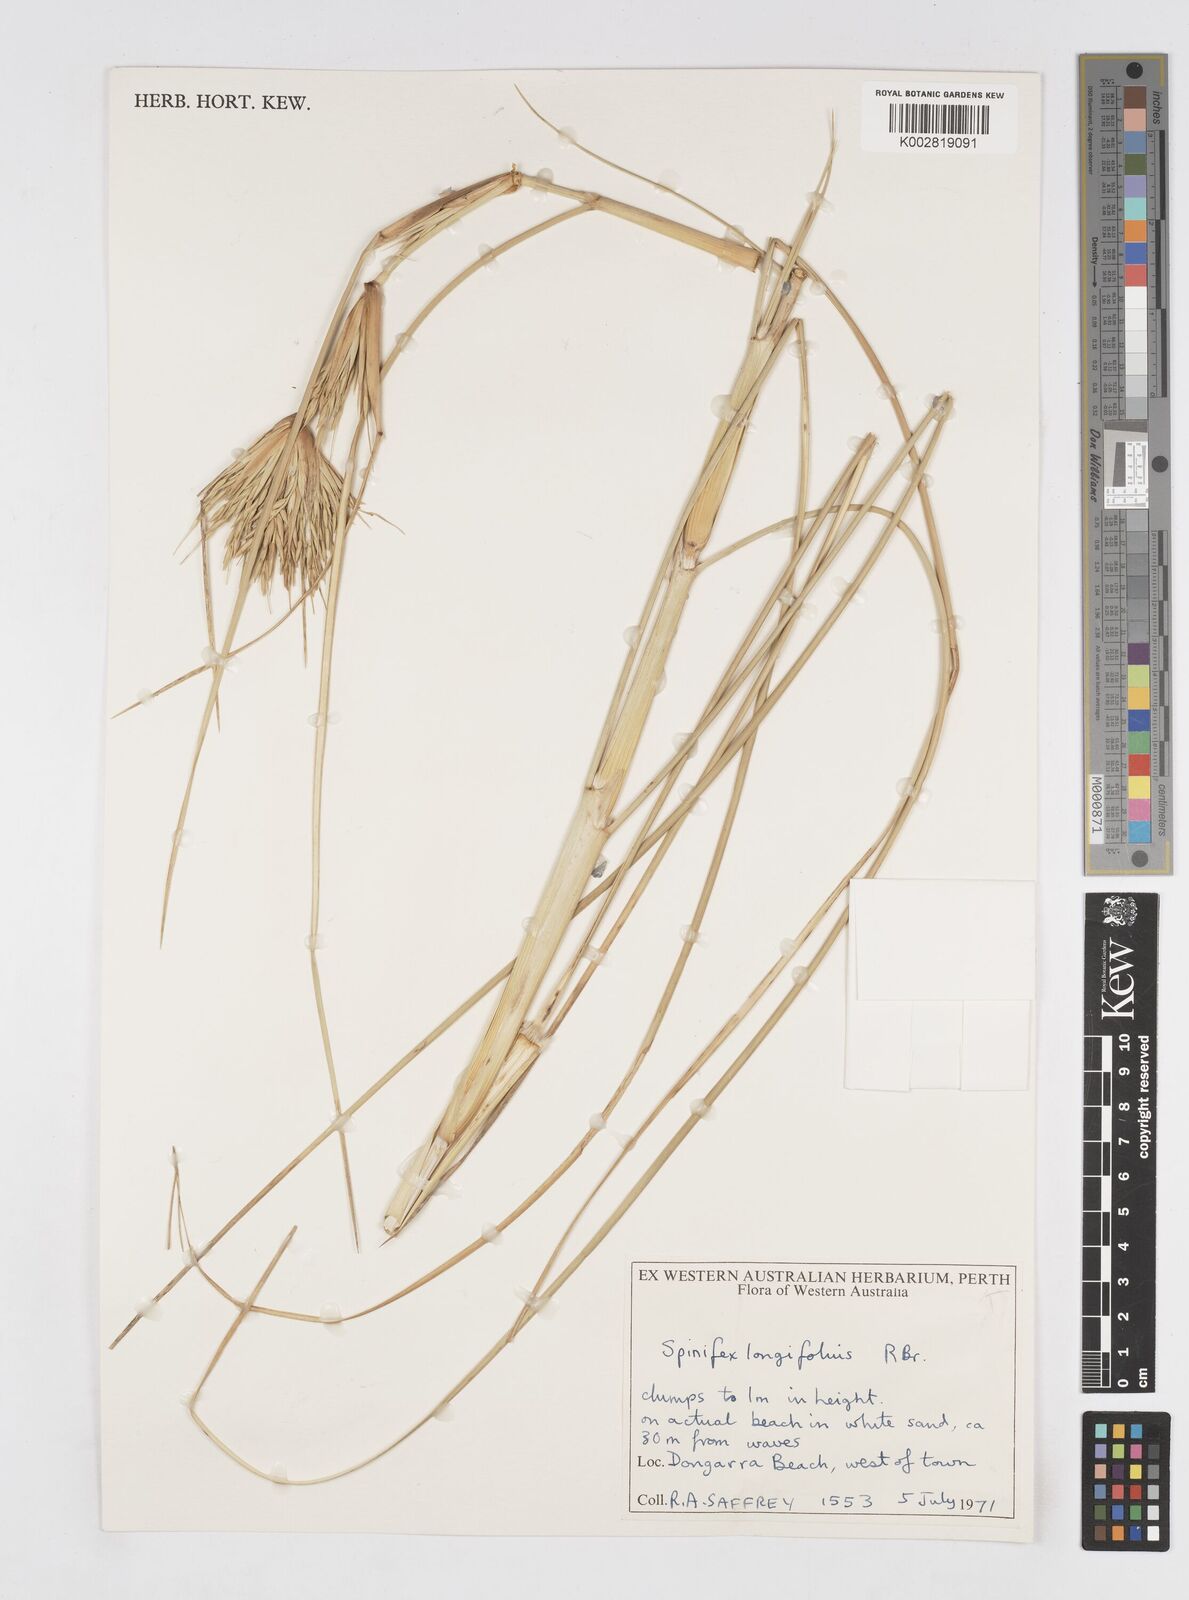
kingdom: Plantae
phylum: Tracheophyta
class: Liliopsida
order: Poales
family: Poaceae
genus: Spinifex
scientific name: Spinifex longifolius
